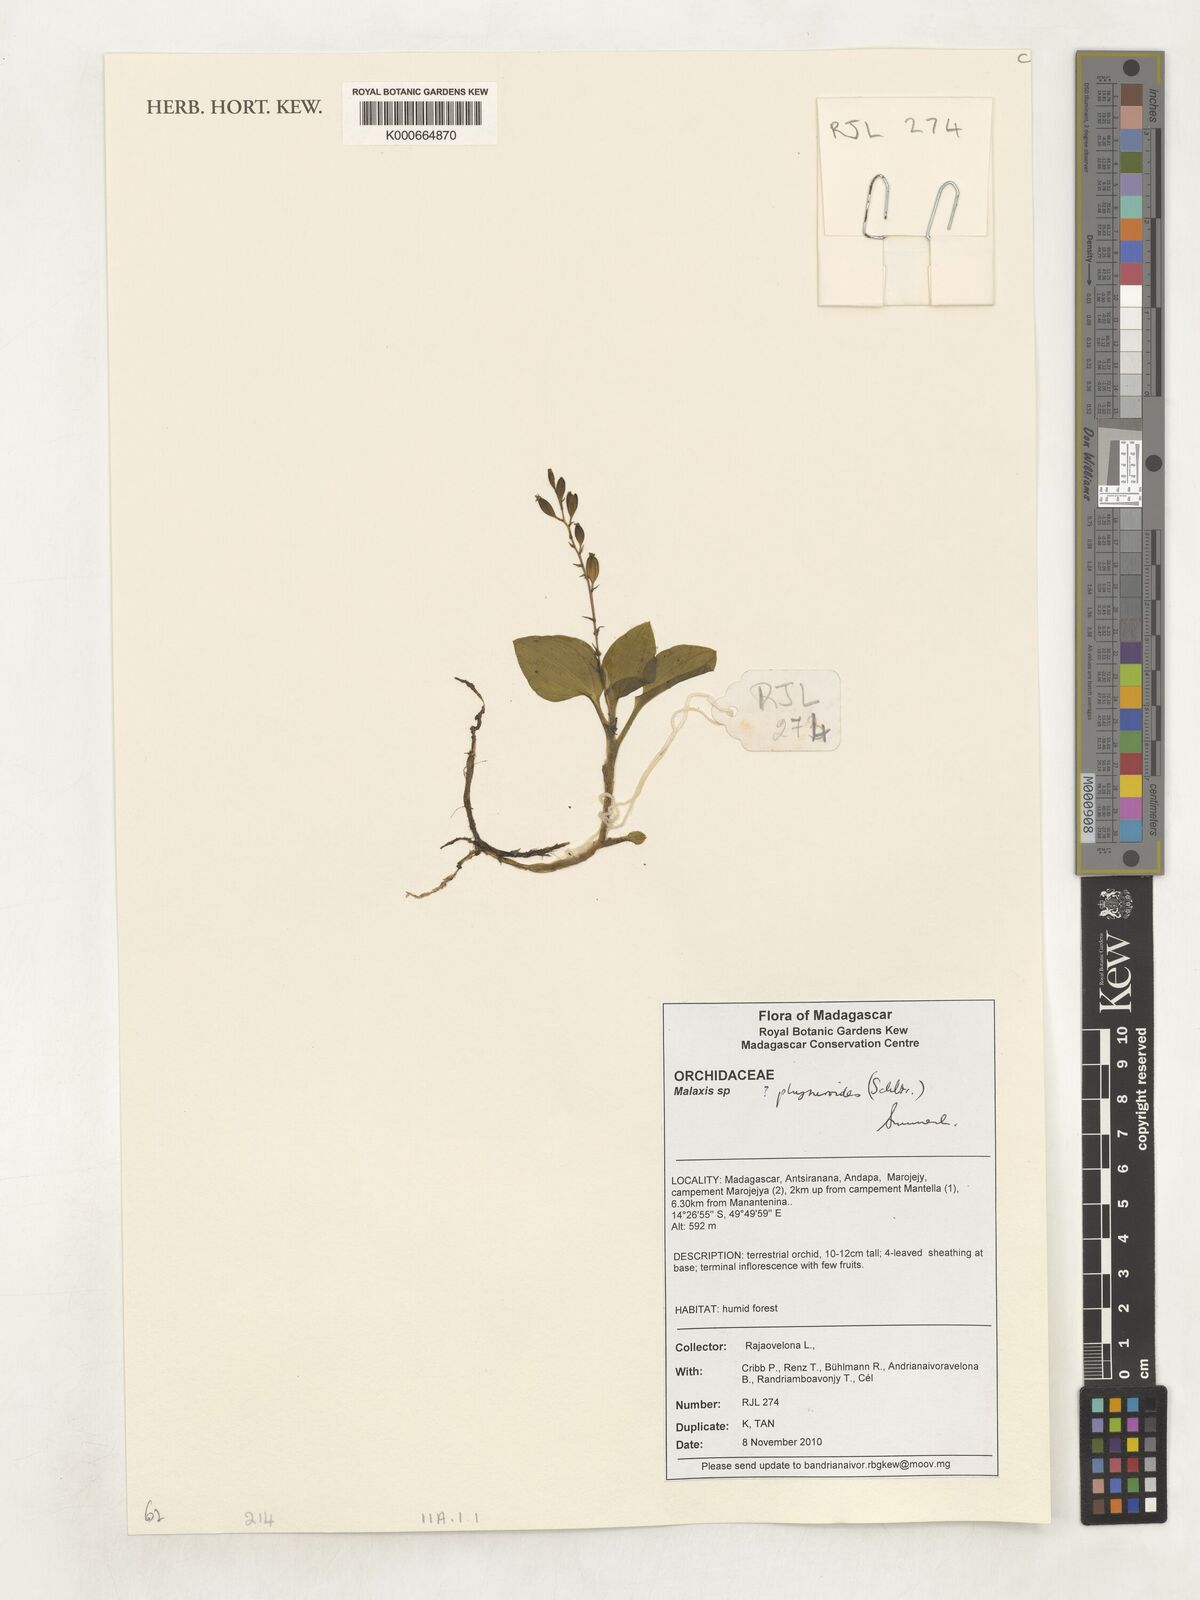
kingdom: Plantae
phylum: Tracheophyta
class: Liliopsida
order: Asparagales
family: Orchidaceae
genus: Malaxis
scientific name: Malaxis physuroides
